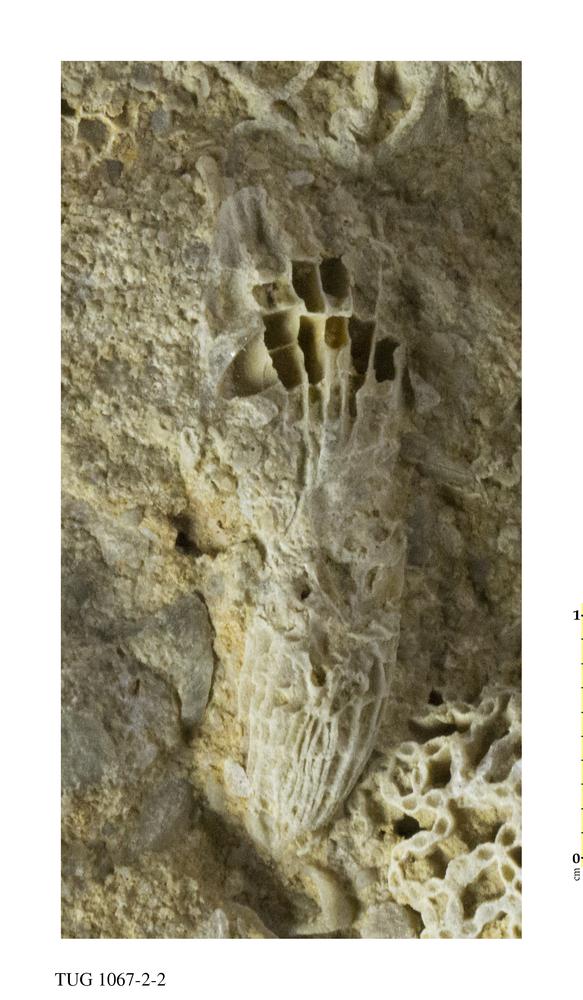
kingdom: Animalia
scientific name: Animalia
